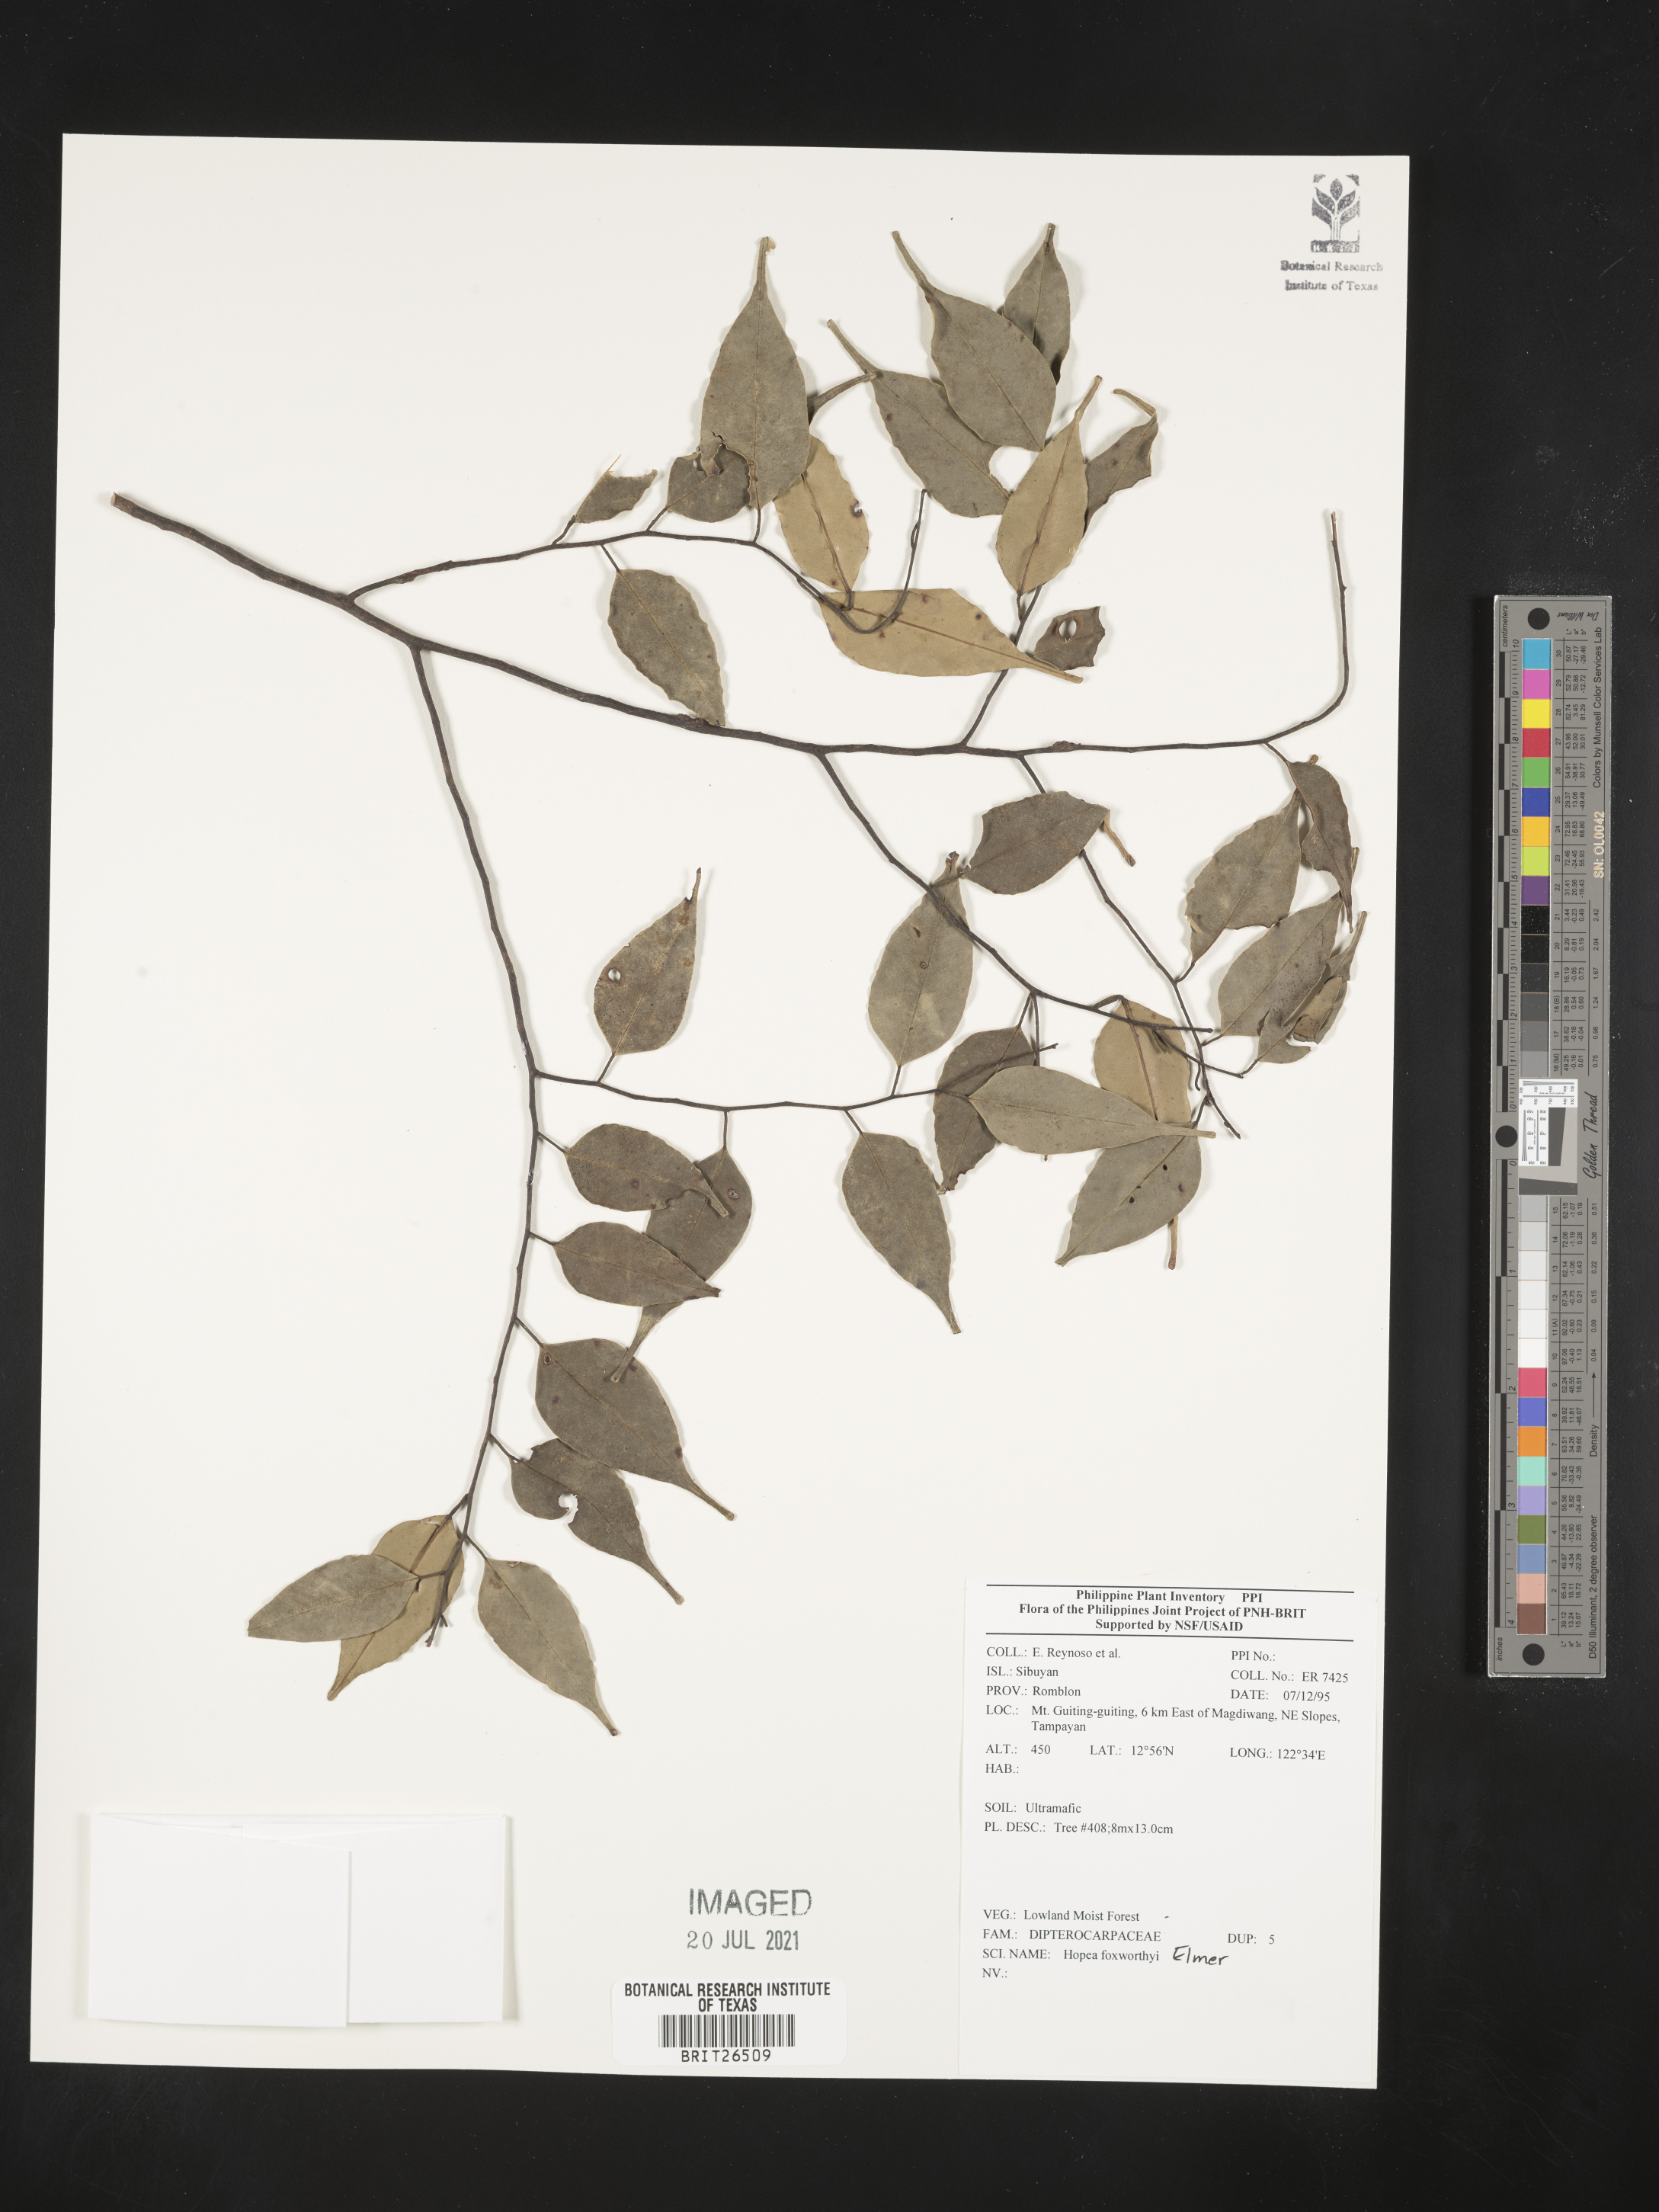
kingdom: Plantae
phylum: Tracheophyta
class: Magnoliopsida
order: Malvales
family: Dipterocarpaceae
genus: Hopea
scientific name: Hopea foxworthyi
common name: Dalingdingan
